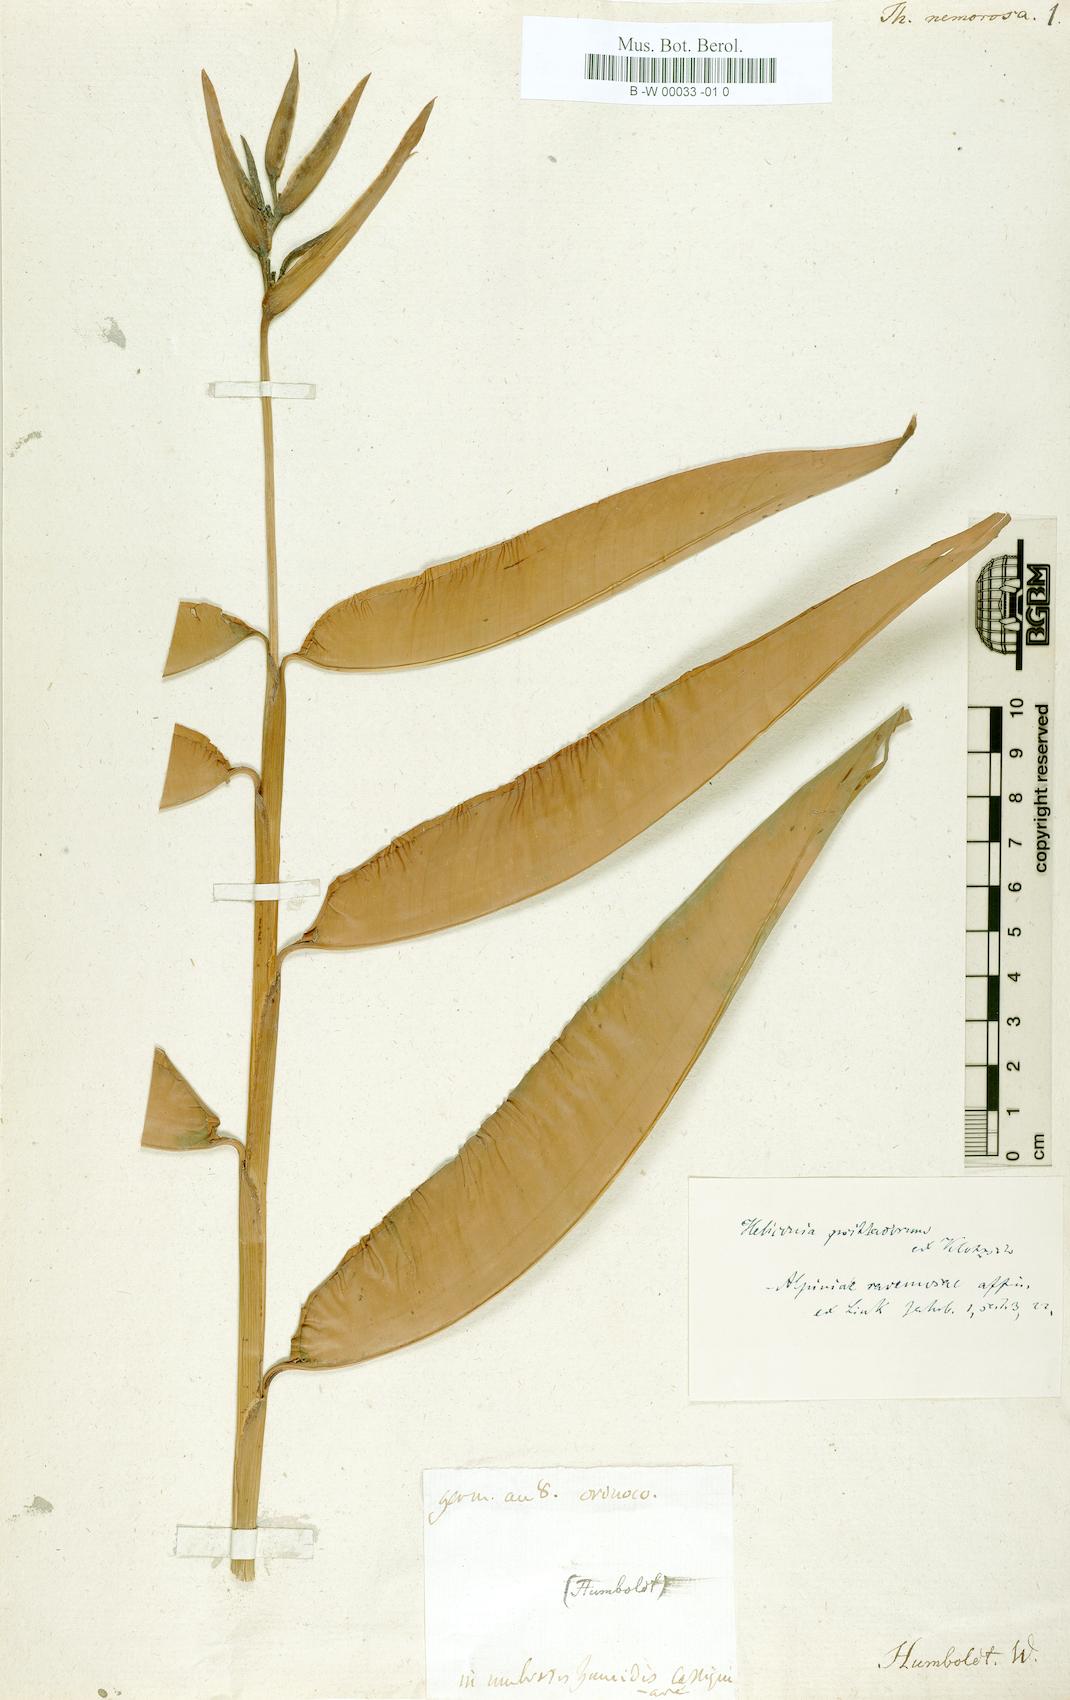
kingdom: Plantae
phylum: Tracheophyta
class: Liliopsida
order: Zingiberales
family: Heliconiaceae
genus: Heliconia
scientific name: Heliconia hirsuta
